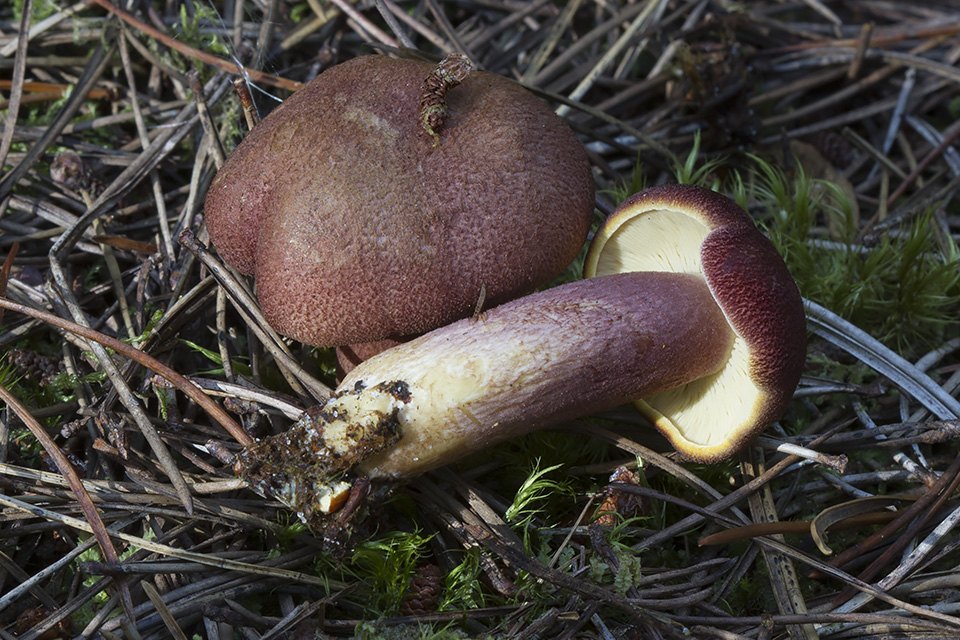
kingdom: Fungi
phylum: Basidiomycota
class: Agaricomycetes
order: Agaricales
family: Tricholomataceae
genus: Tricholomopsis
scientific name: Tricholomopsis rutilans
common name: purpur-væbnerhat
